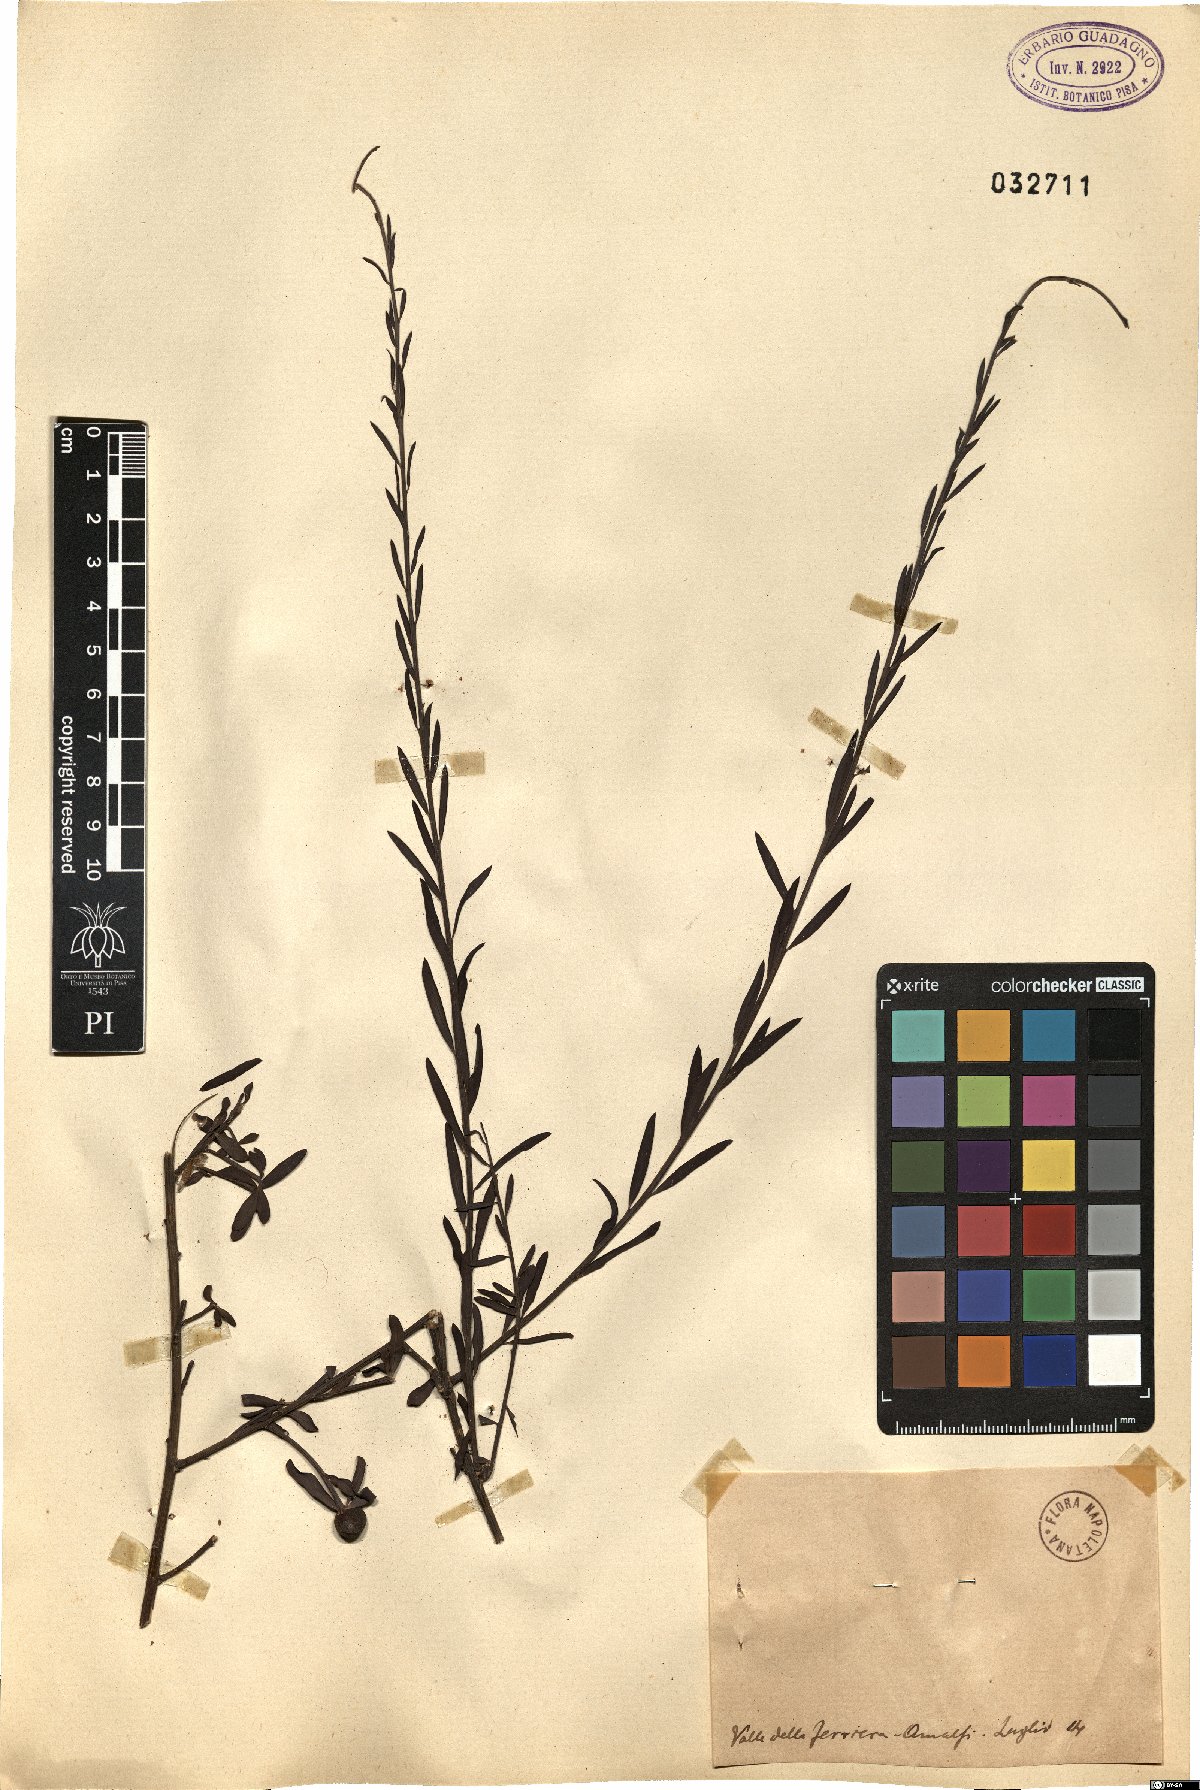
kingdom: Plantae
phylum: Tracheophyta
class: Magnoliopsida
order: Santalales
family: Santalaceae
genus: Osyris
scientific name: Osyris
